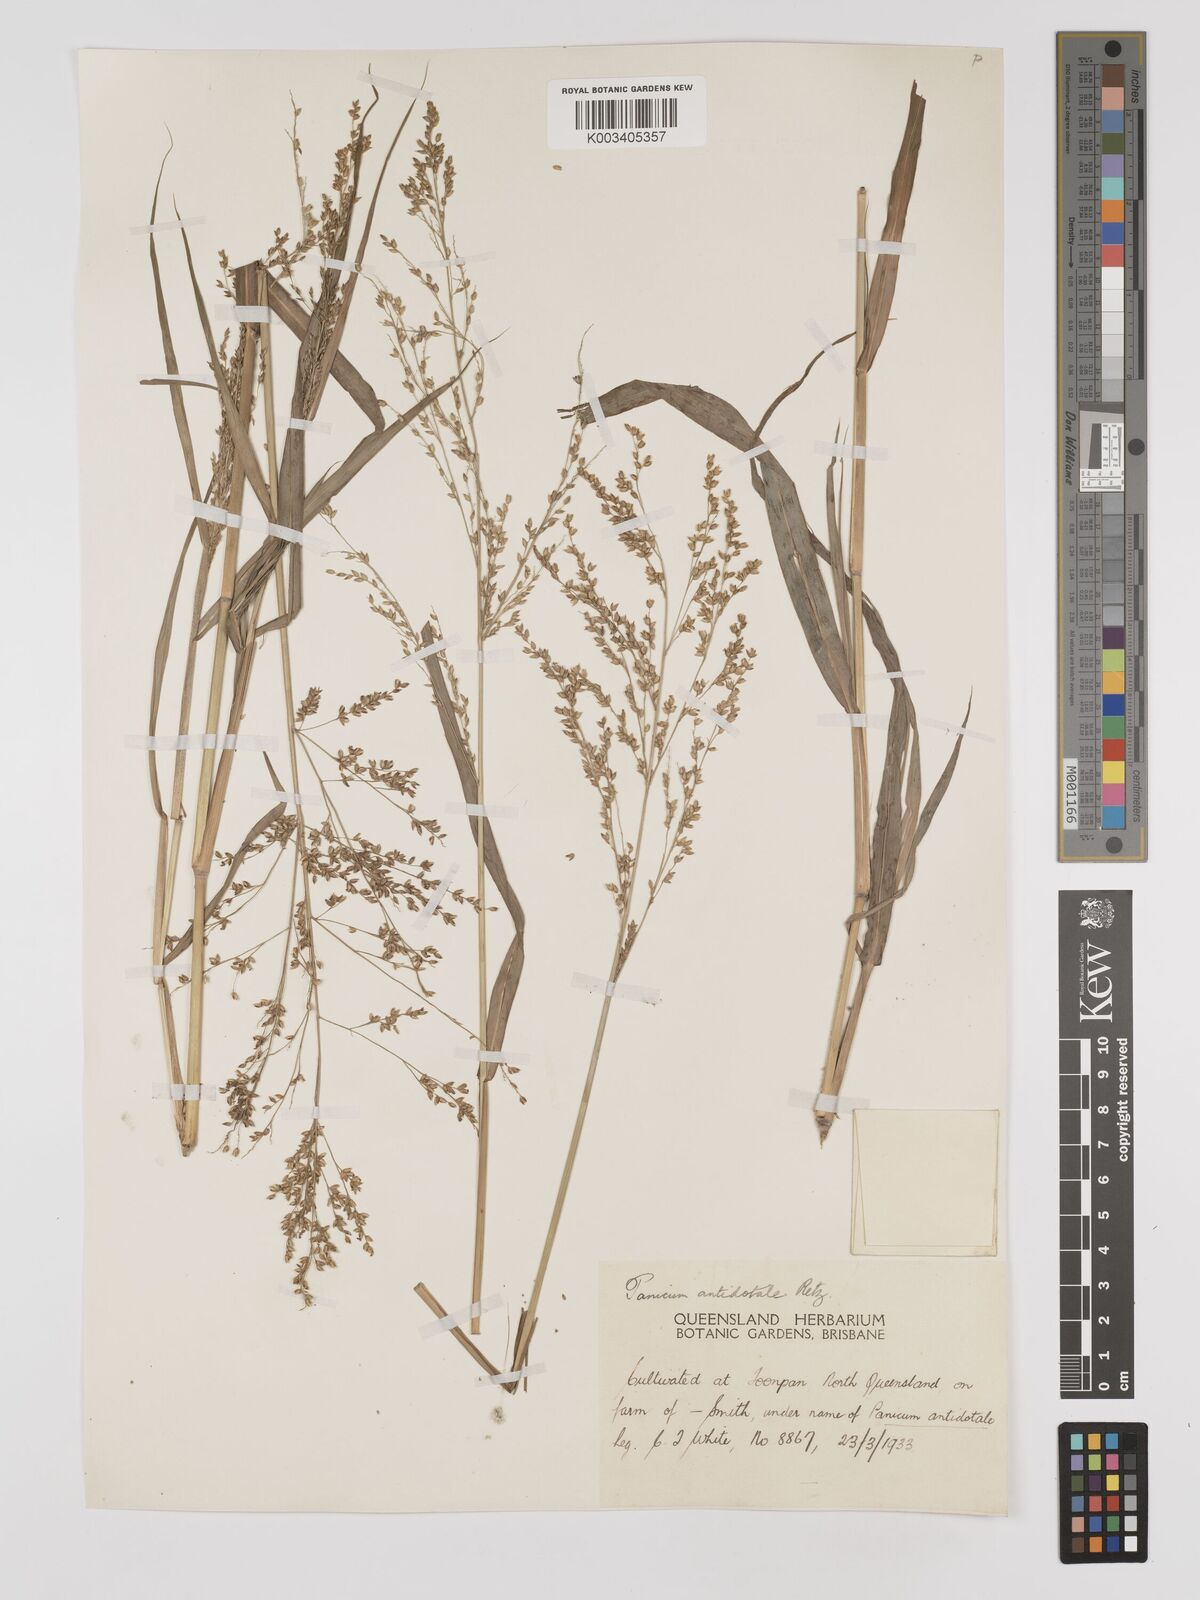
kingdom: Plantae
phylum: Tracheophyta
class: Liliopsida
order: Poales
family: Poaceae
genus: Panicum
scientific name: Panicum antidotale
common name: Blue panicum
